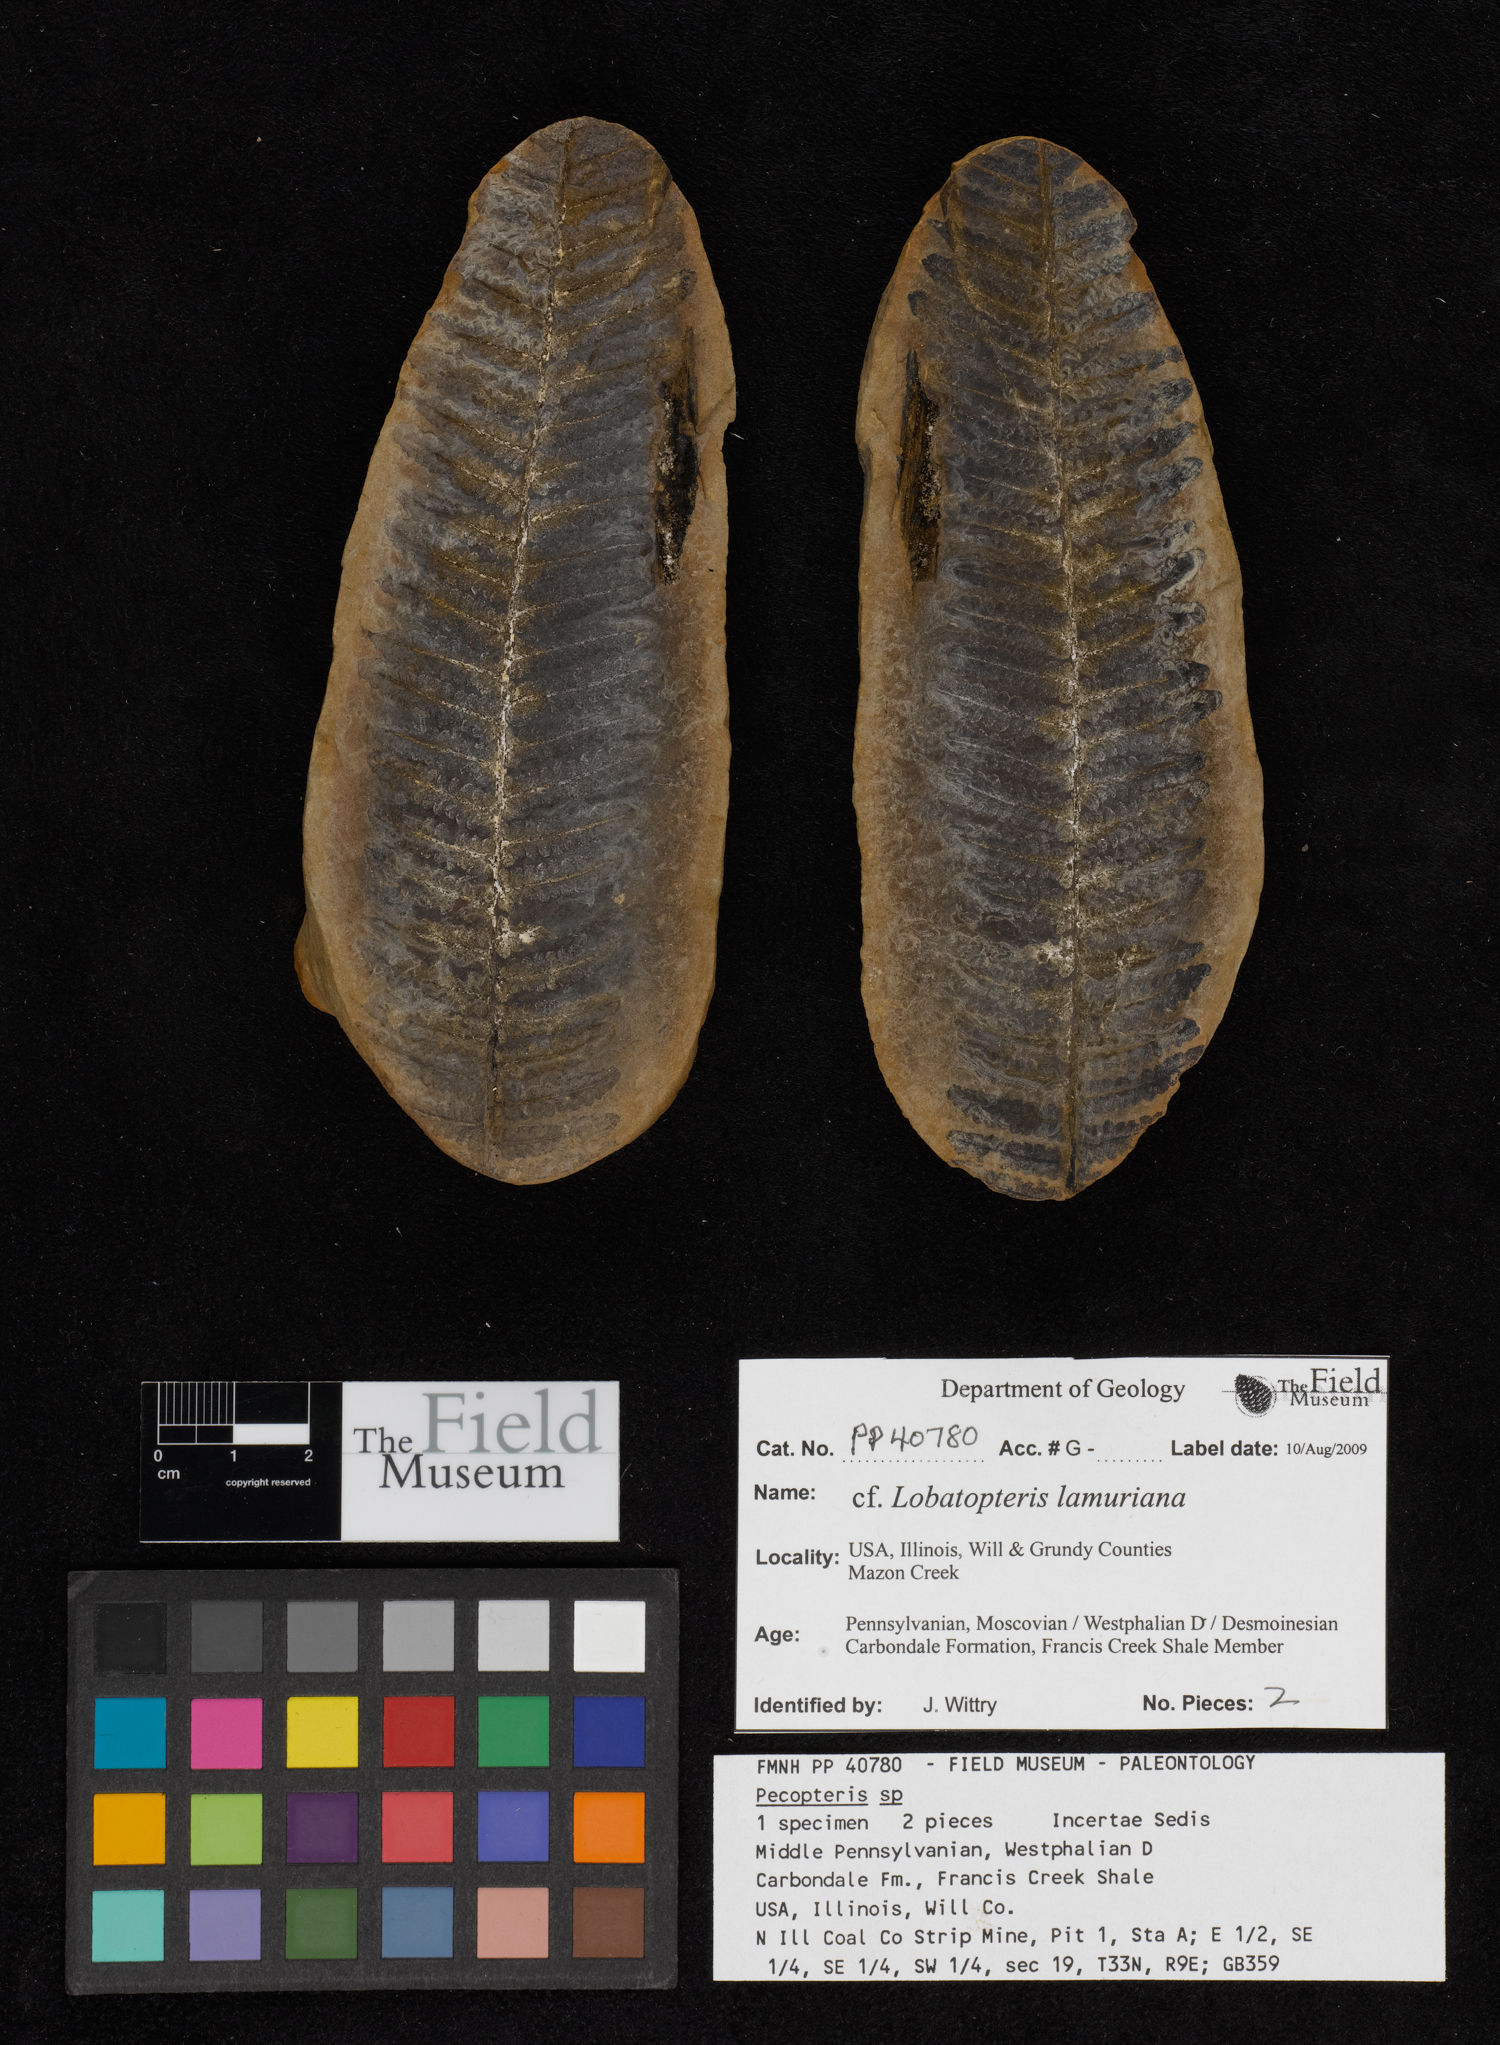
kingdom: Plantae
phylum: Tracheophyta
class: Polypodiopsida
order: Marattiales
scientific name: Marattiales
